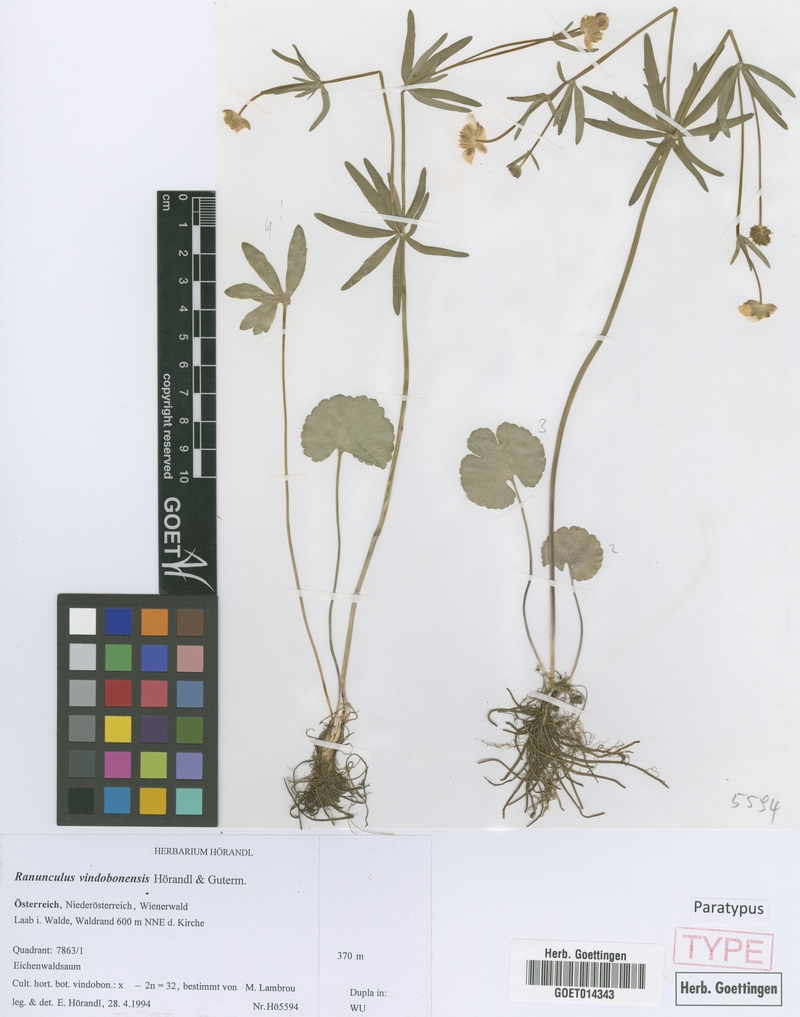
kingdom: Plantae
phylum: Tracheophyta
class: Magnoliopsida
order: Ranunculales
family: Ranunculaceae
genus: Ranunculus
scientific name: Ranunculus vindobonensis
